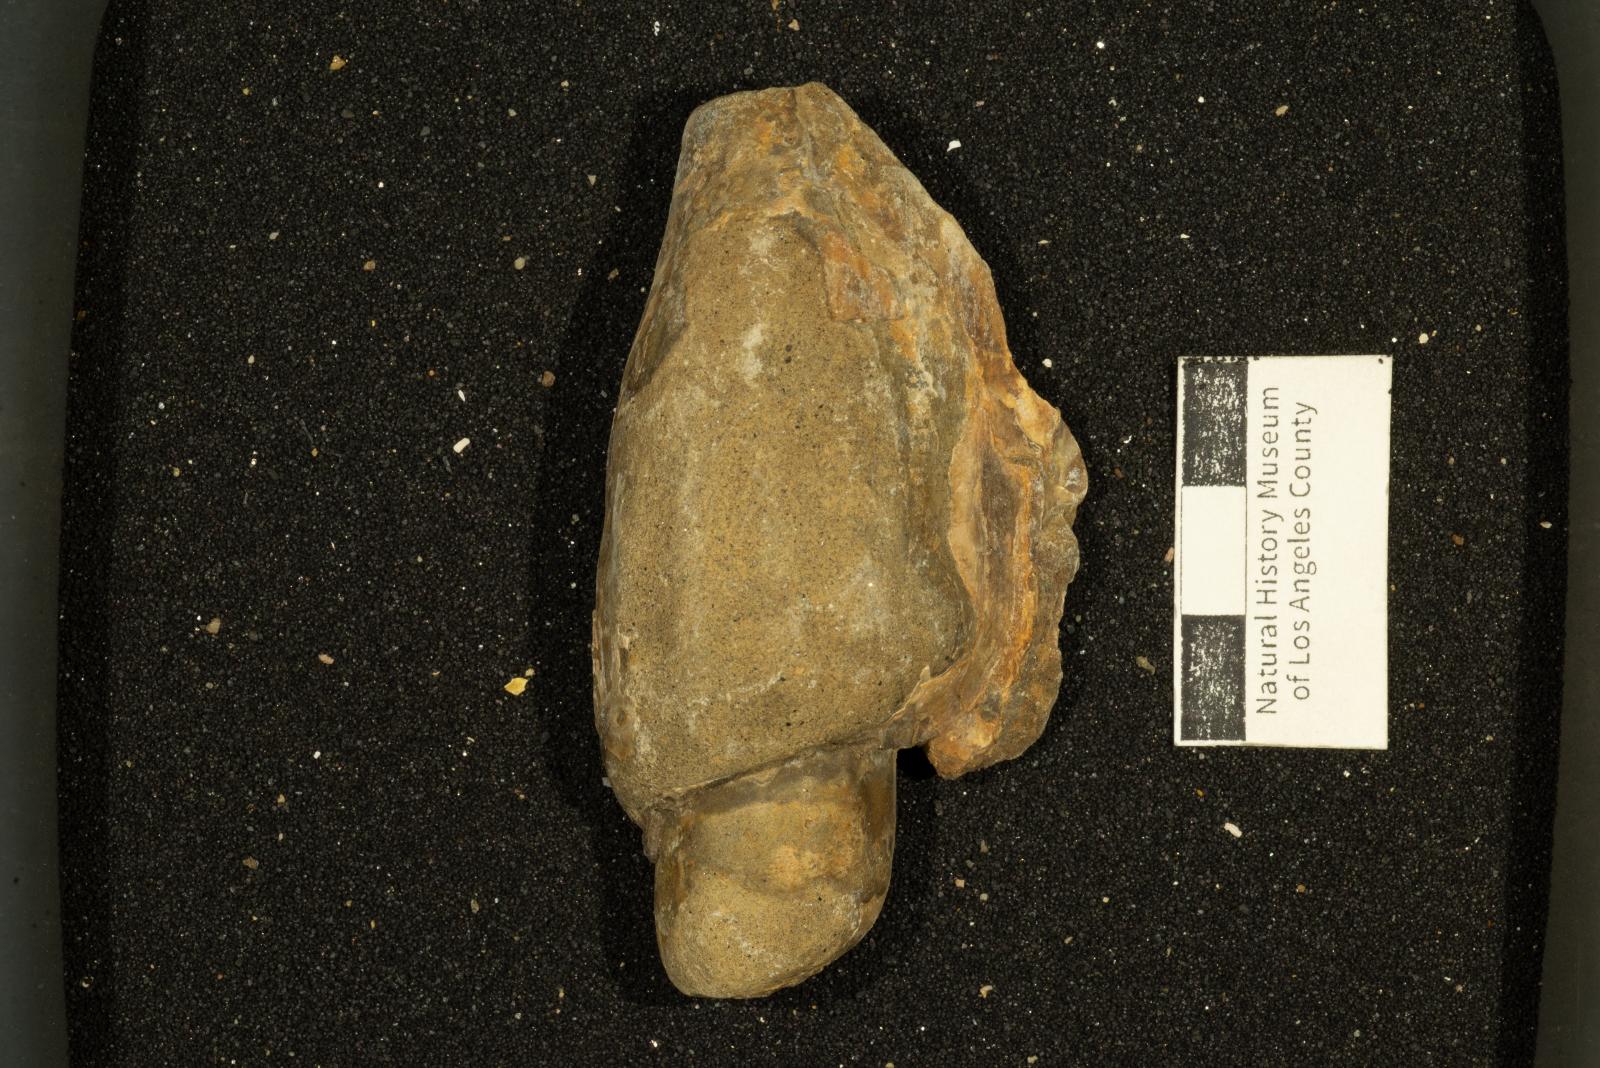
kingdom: Animalia
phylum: Mollusca
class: Gastropoda
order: Neogastropoda
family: Pholidotomidae
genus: Longoconcha
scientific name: Longoconcha eumeka
